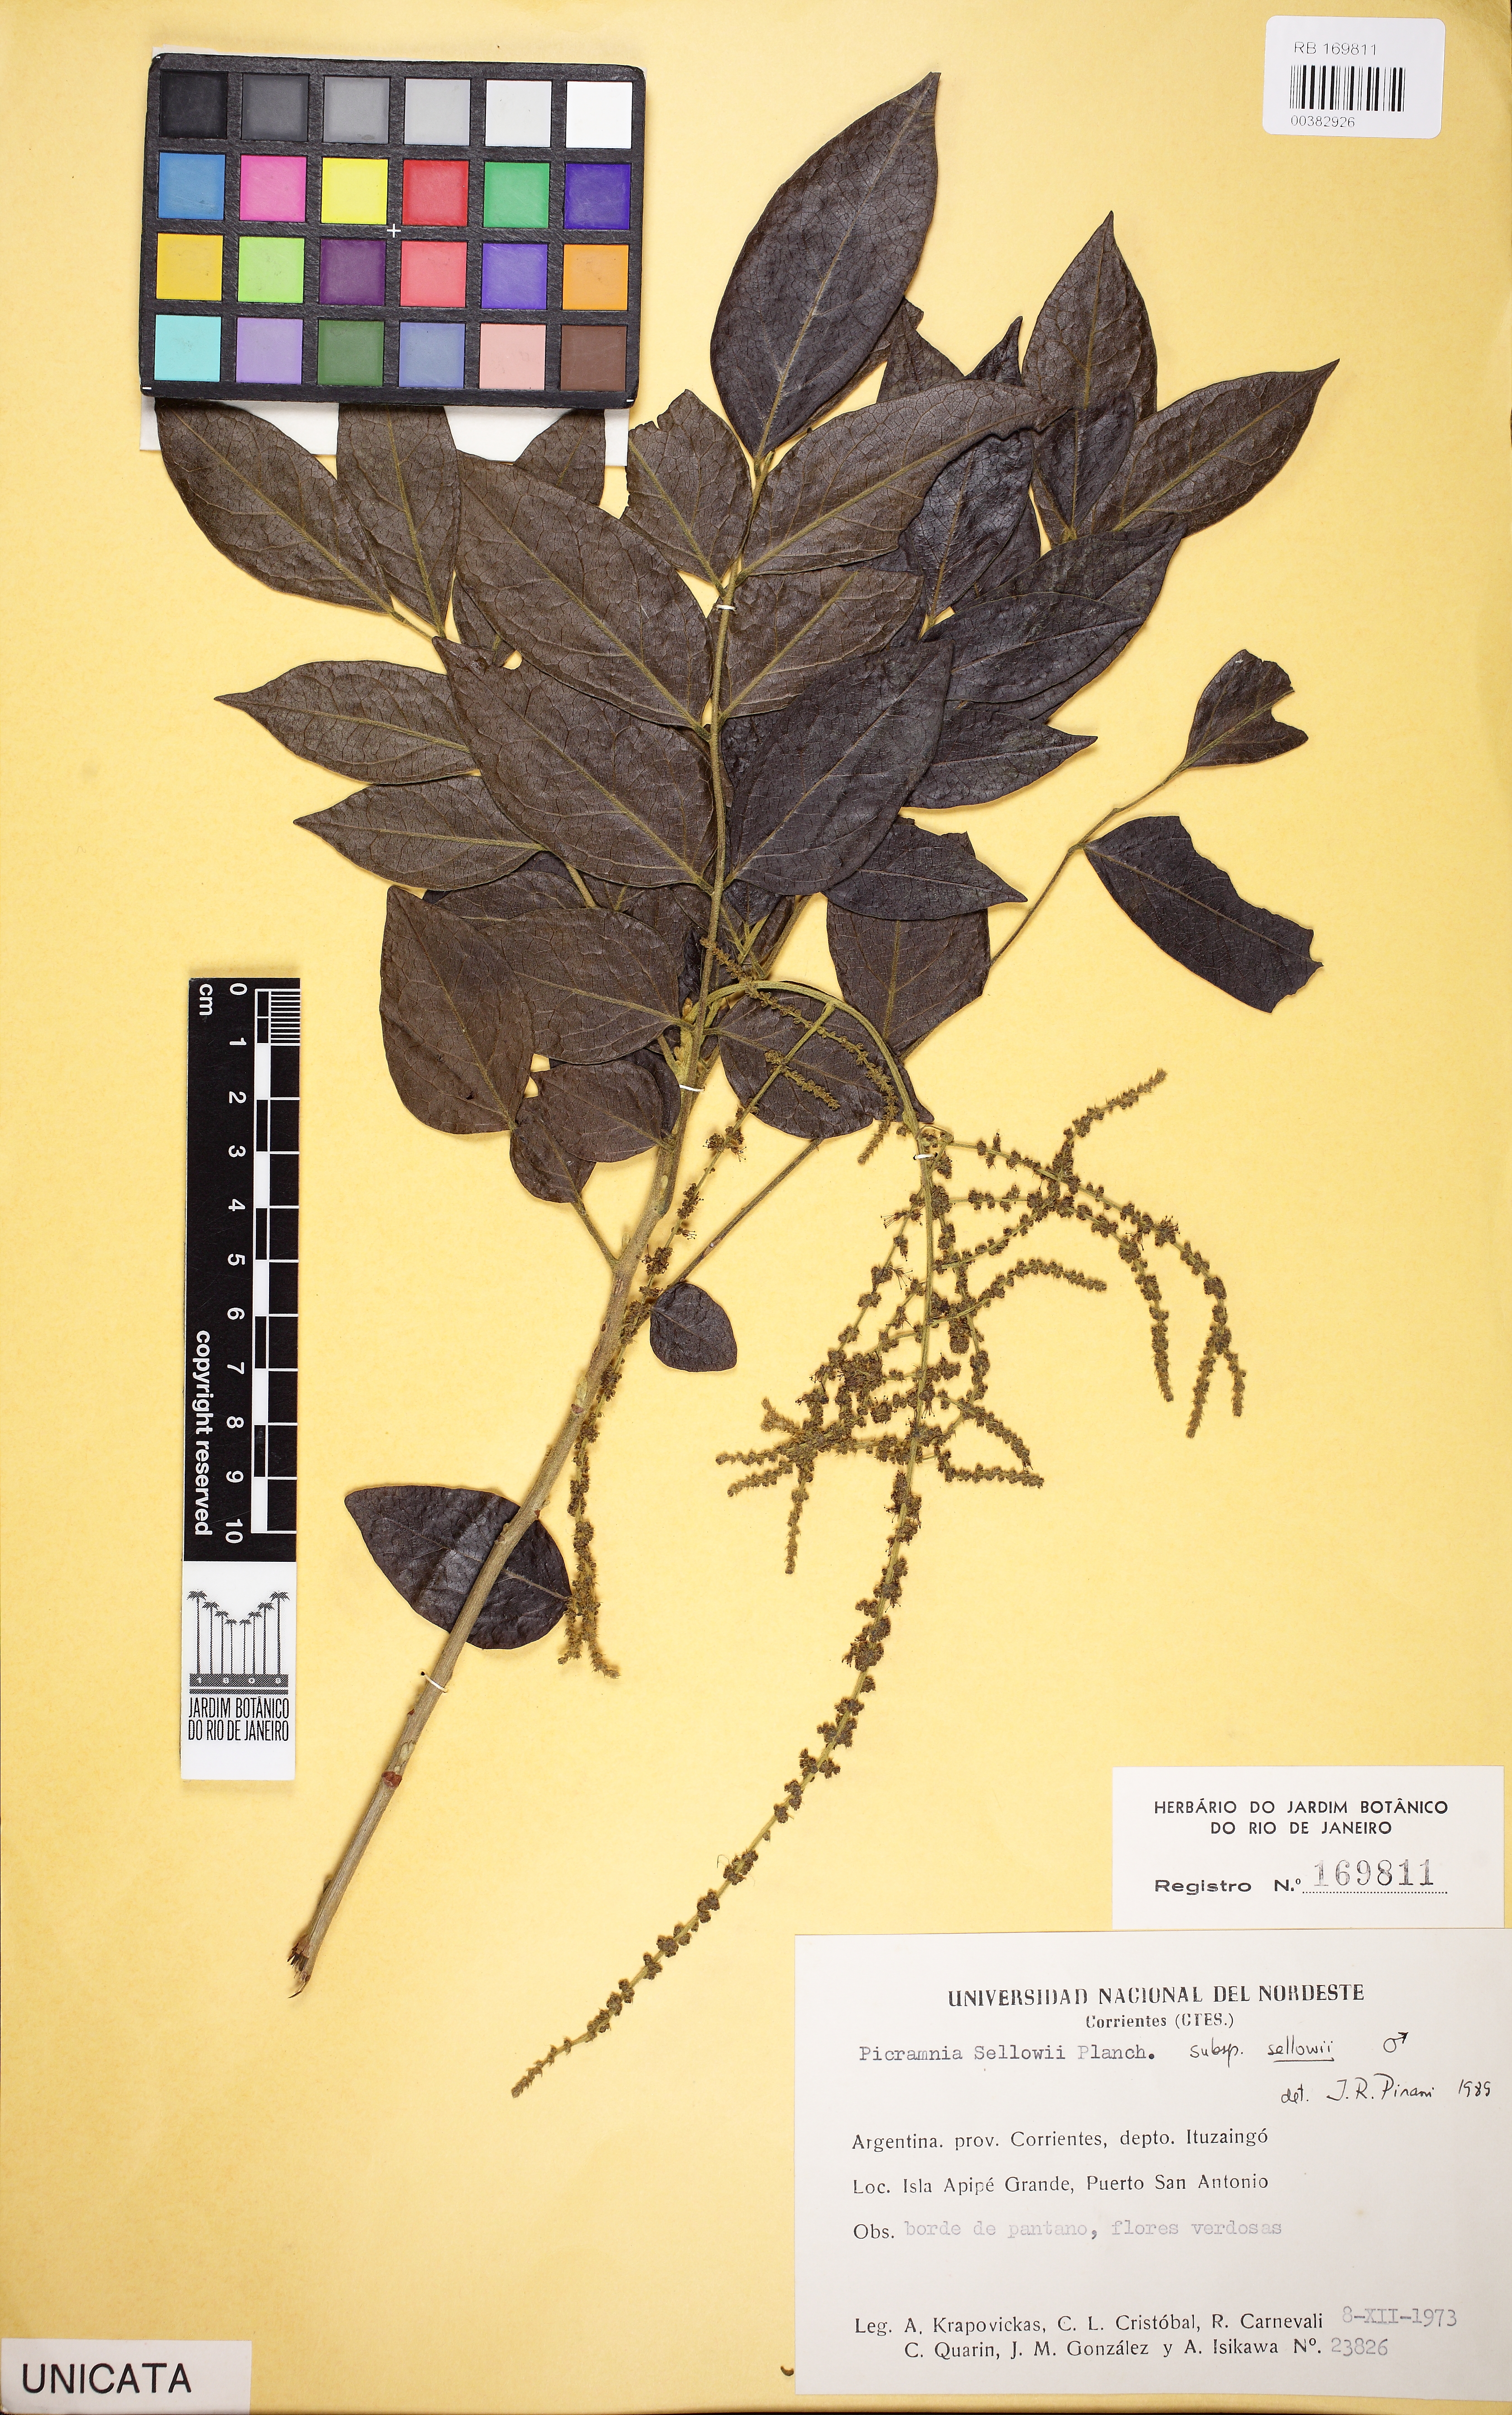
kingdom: Plantae
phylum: Tracheophyta
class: Magnoliopsida
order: Picramniales
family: Picramniaceae
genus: Picramnia
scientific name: Picramnia sellowii
